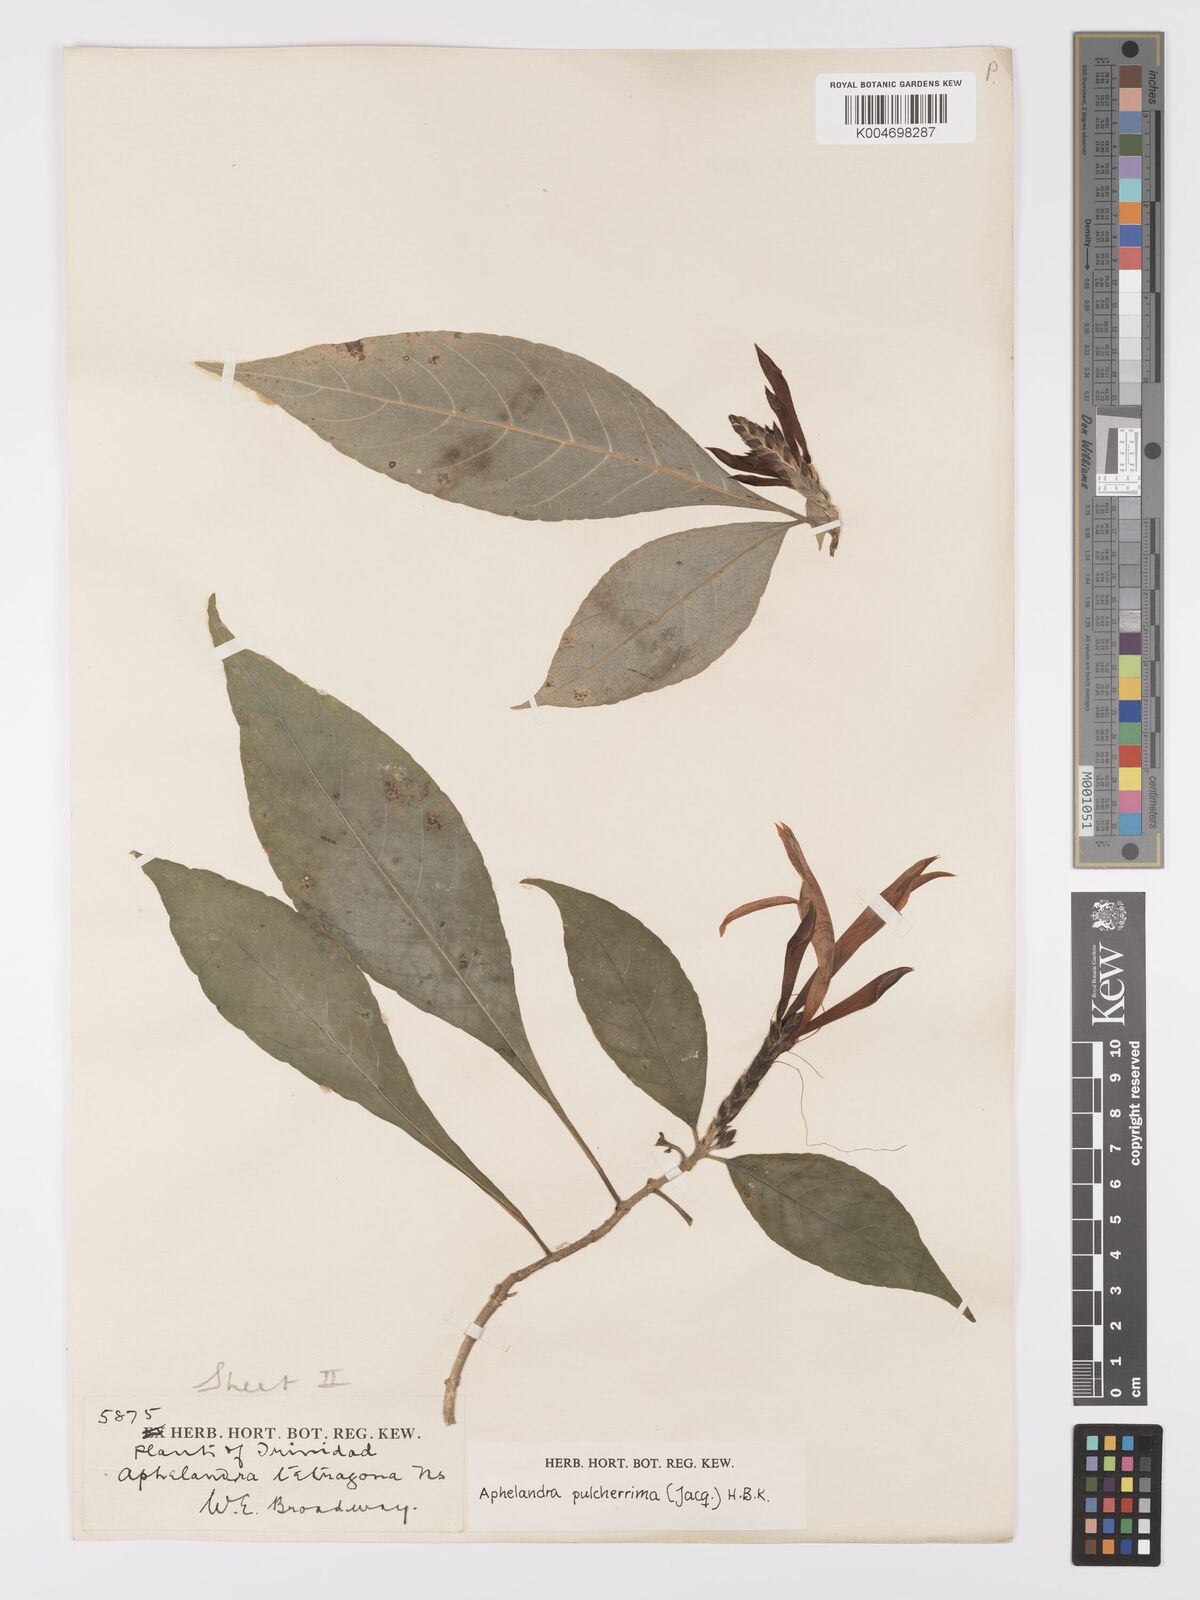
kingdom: Plantae
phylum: Tracheophyta
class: Magnoliopsida
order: Lamiales
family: Acanthaceae
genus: Aphelandra
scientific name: Aphelandra
